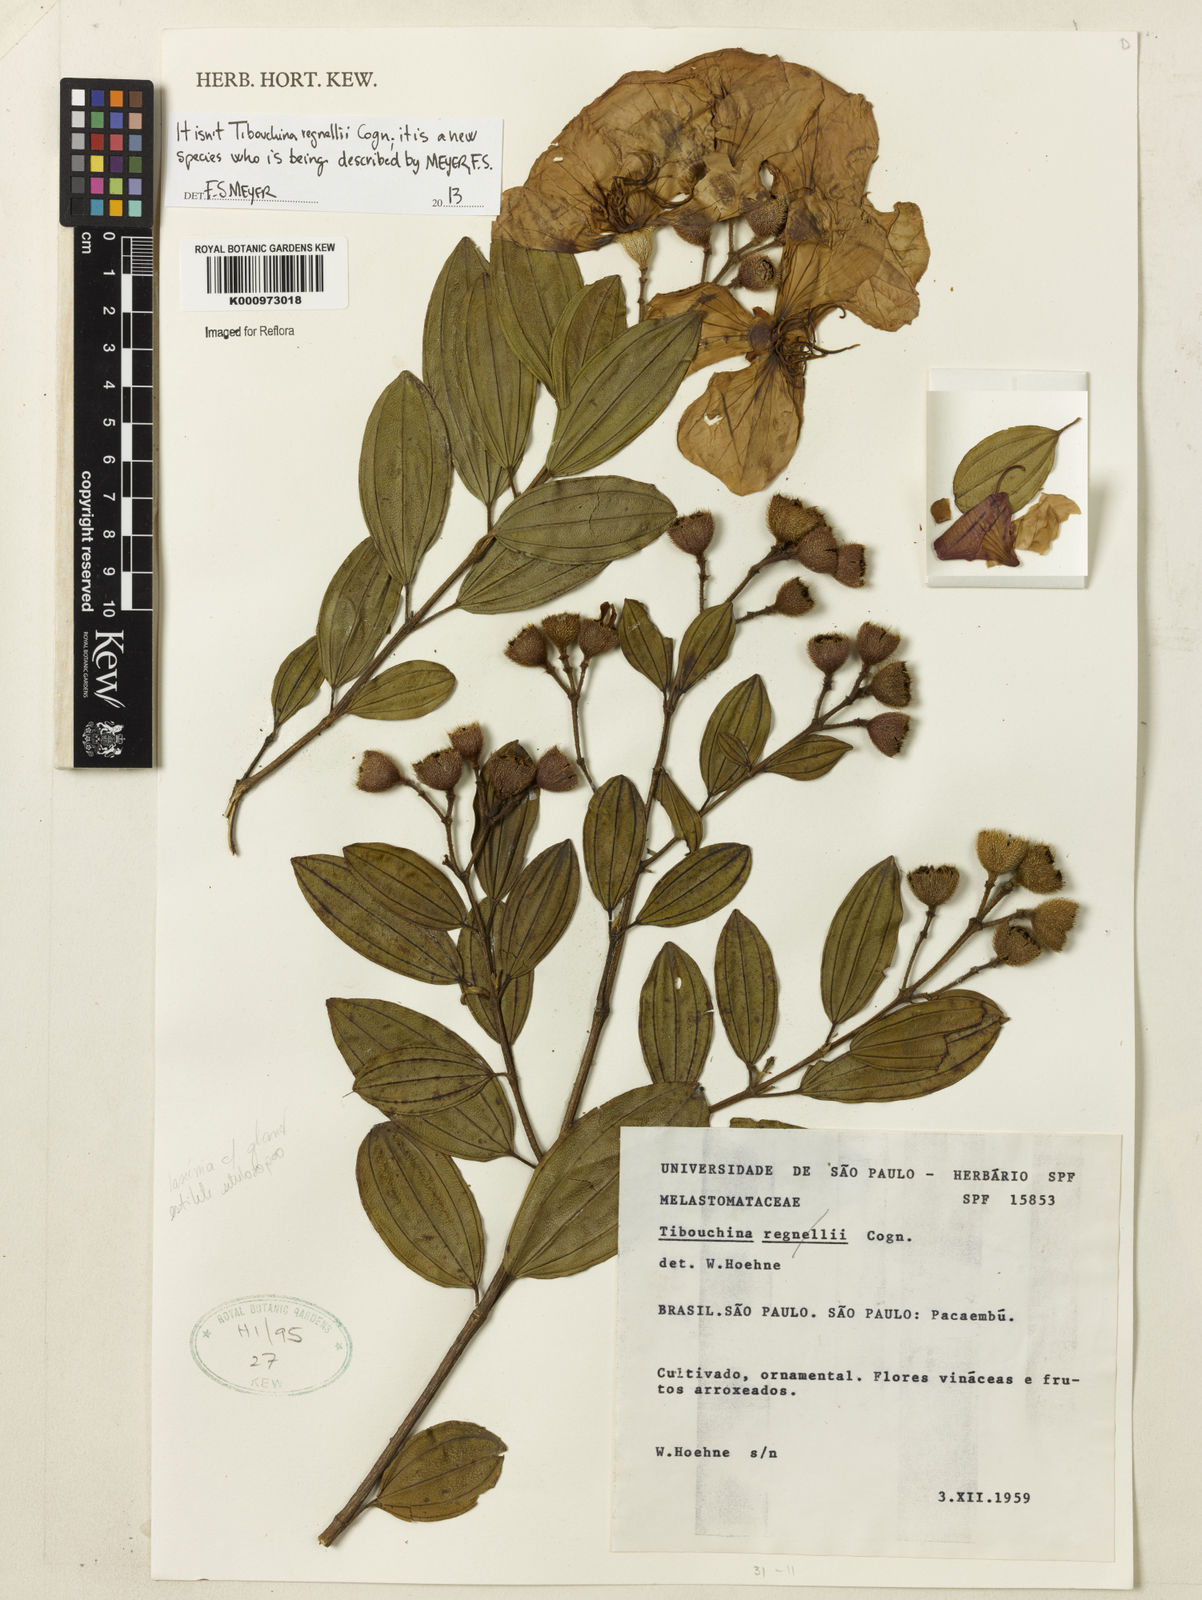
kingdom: Plantae
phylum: Tracheophyta
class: Magnoliopsida
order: Myrtales
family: Melastomataceae
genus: Tibouchina
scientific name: Tibouchina
